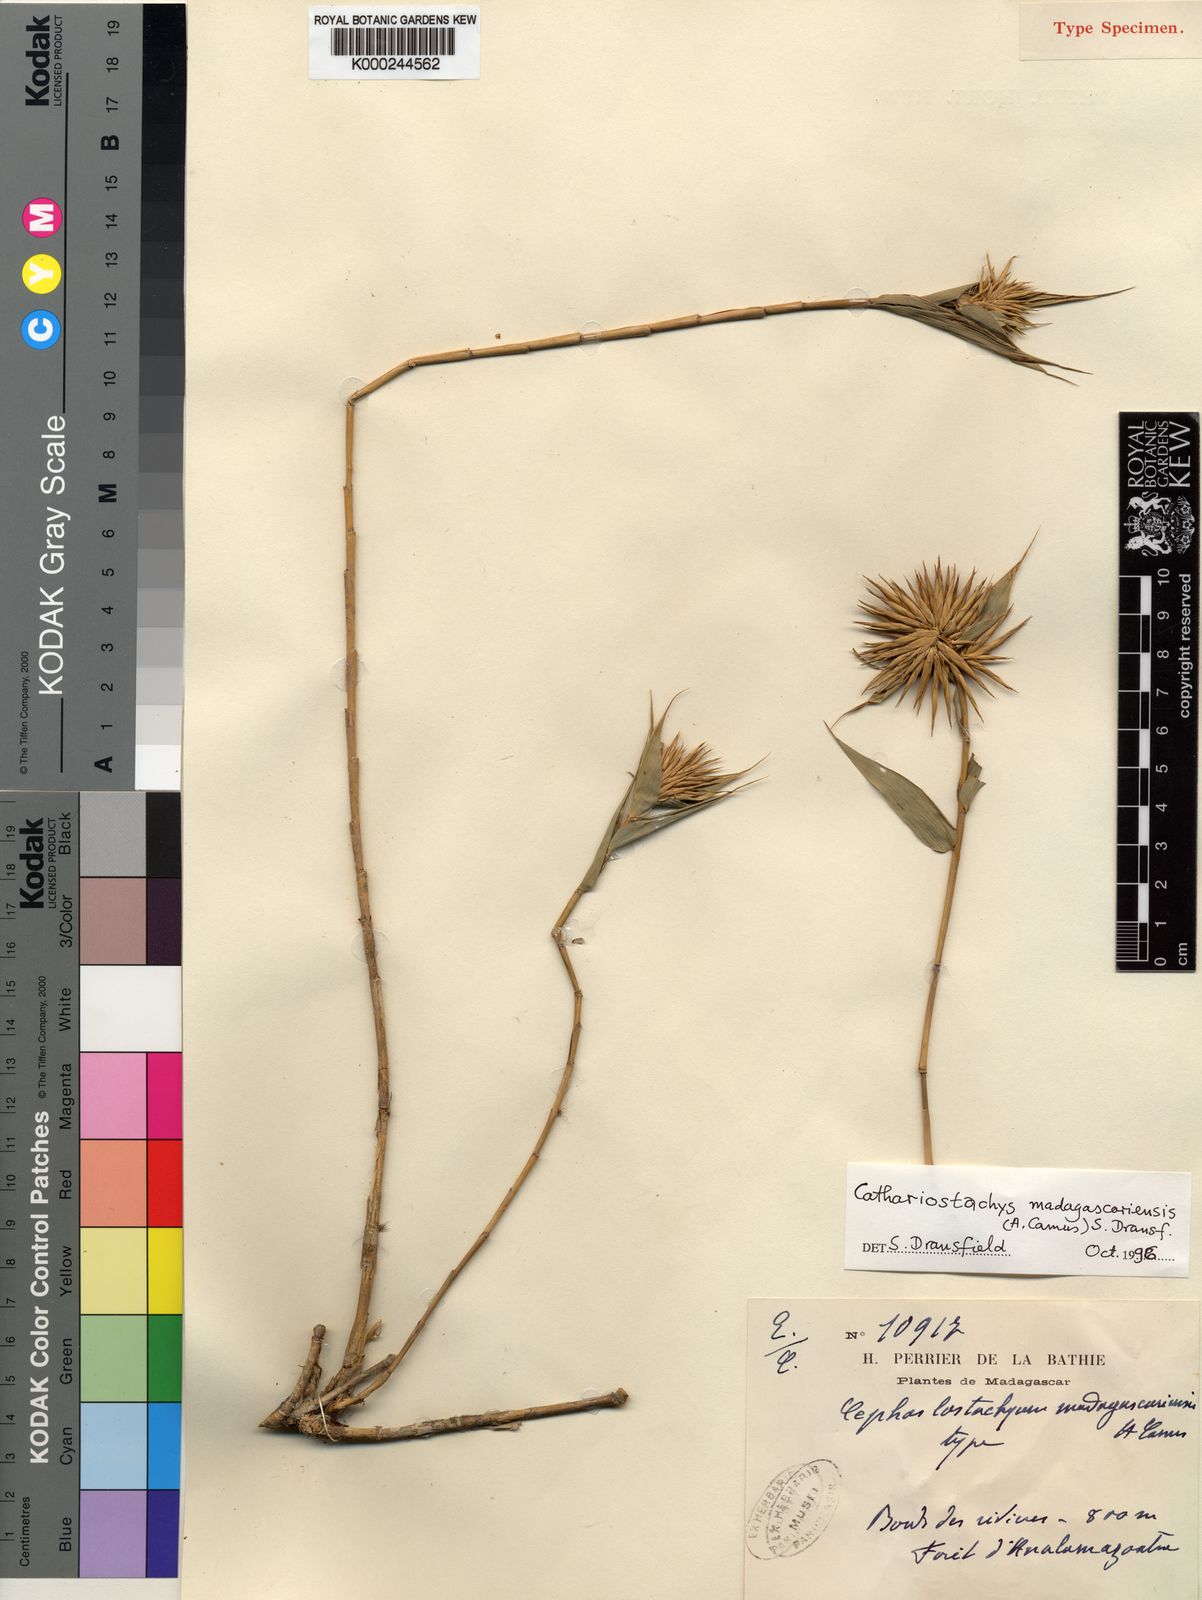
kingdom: Plantae
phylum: Tracheophyta
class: Liliopsida
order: Poales
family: Poaceae
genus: Cathariostachys
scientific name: Cathariostachys madagascariensis
